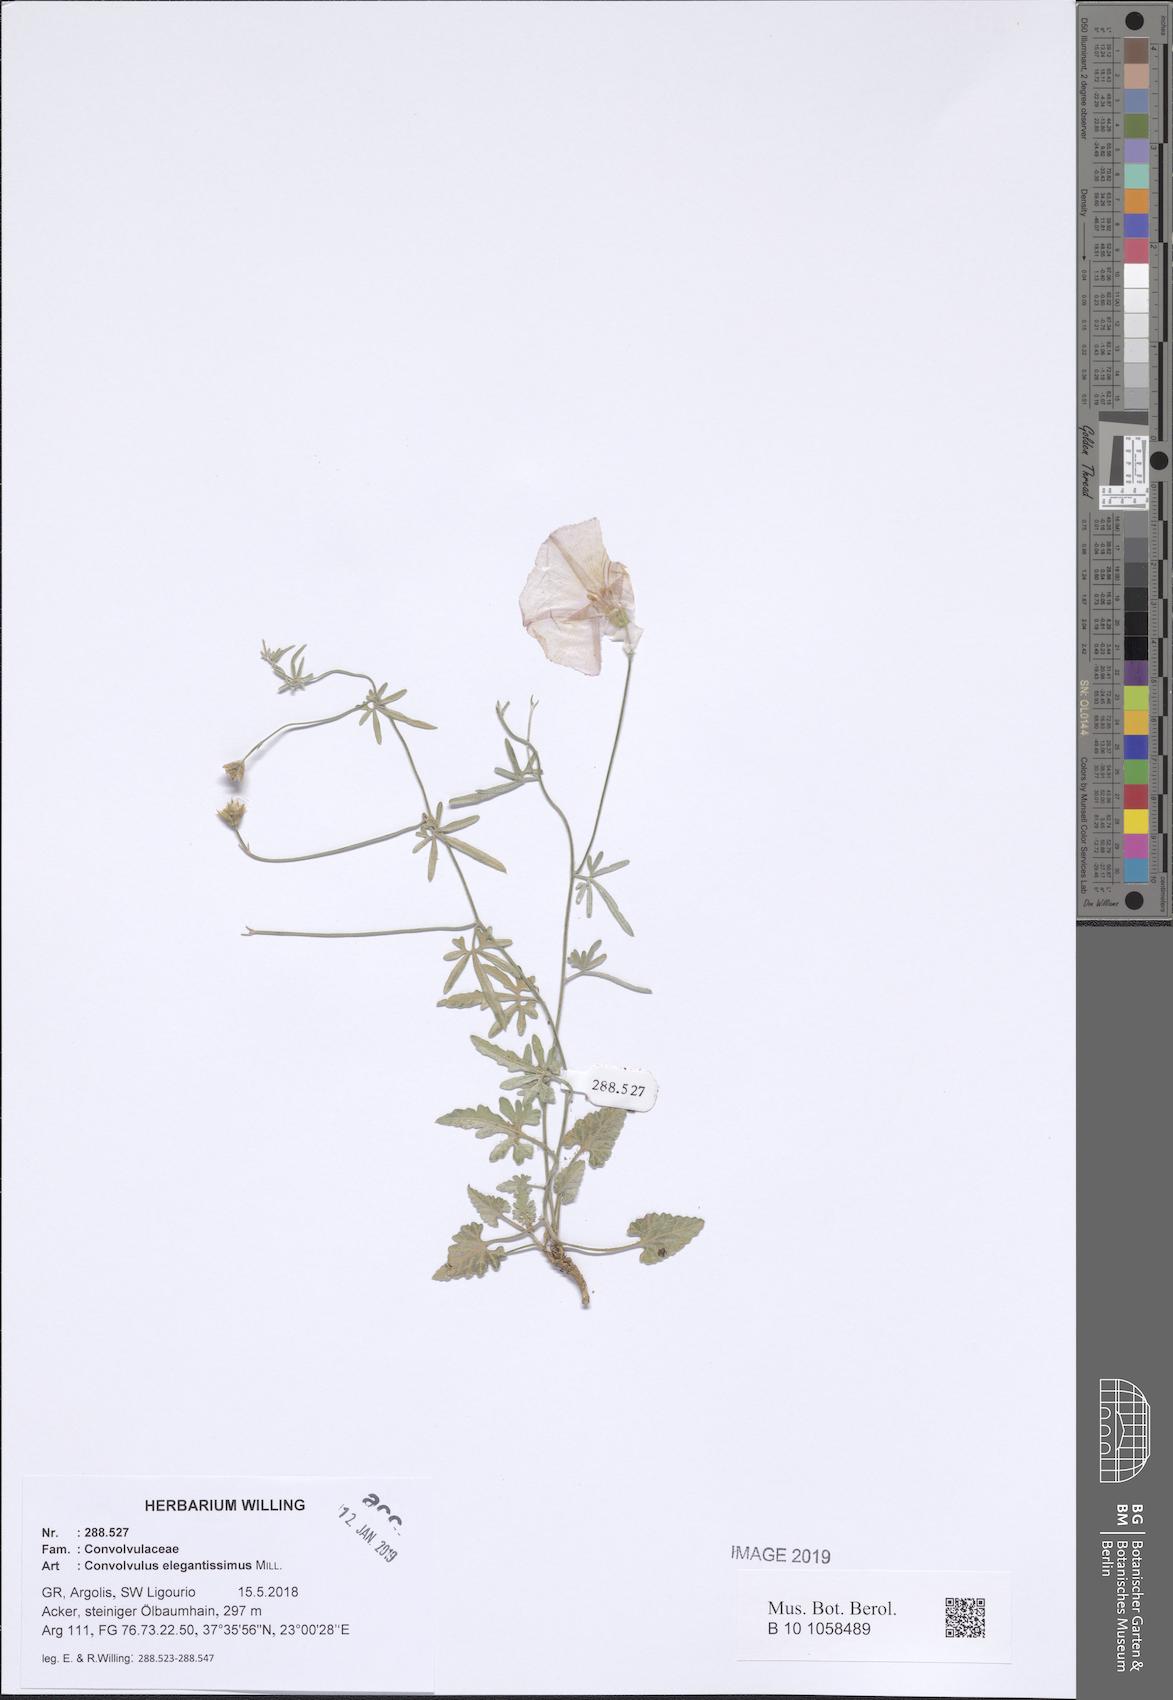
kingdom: Plantae
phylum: Tracheophyta
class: Magnoliopsida
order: Solanales
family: Convolvulaceae
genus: Convolvulus
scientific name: Convolvulus elegantissimus
